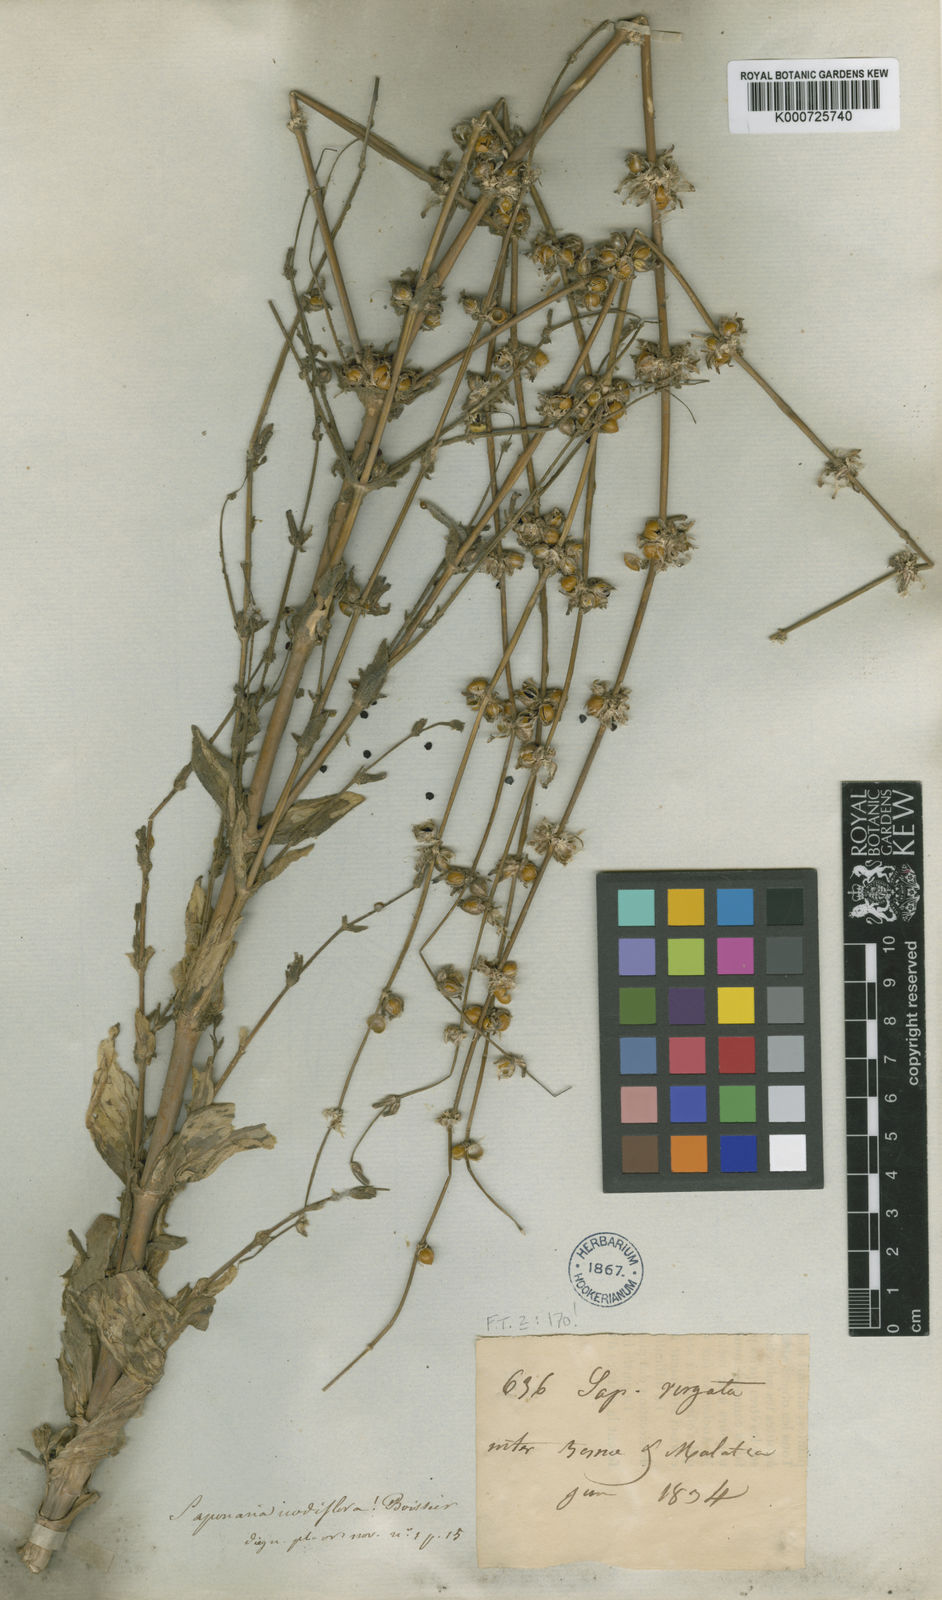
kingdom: Plantae
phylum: Tracheophyta
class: Magnoliopsida
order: Caryophyllales
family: Caryophyllaceae
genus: Gypsophila
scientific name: Gypsophila nodiflora
